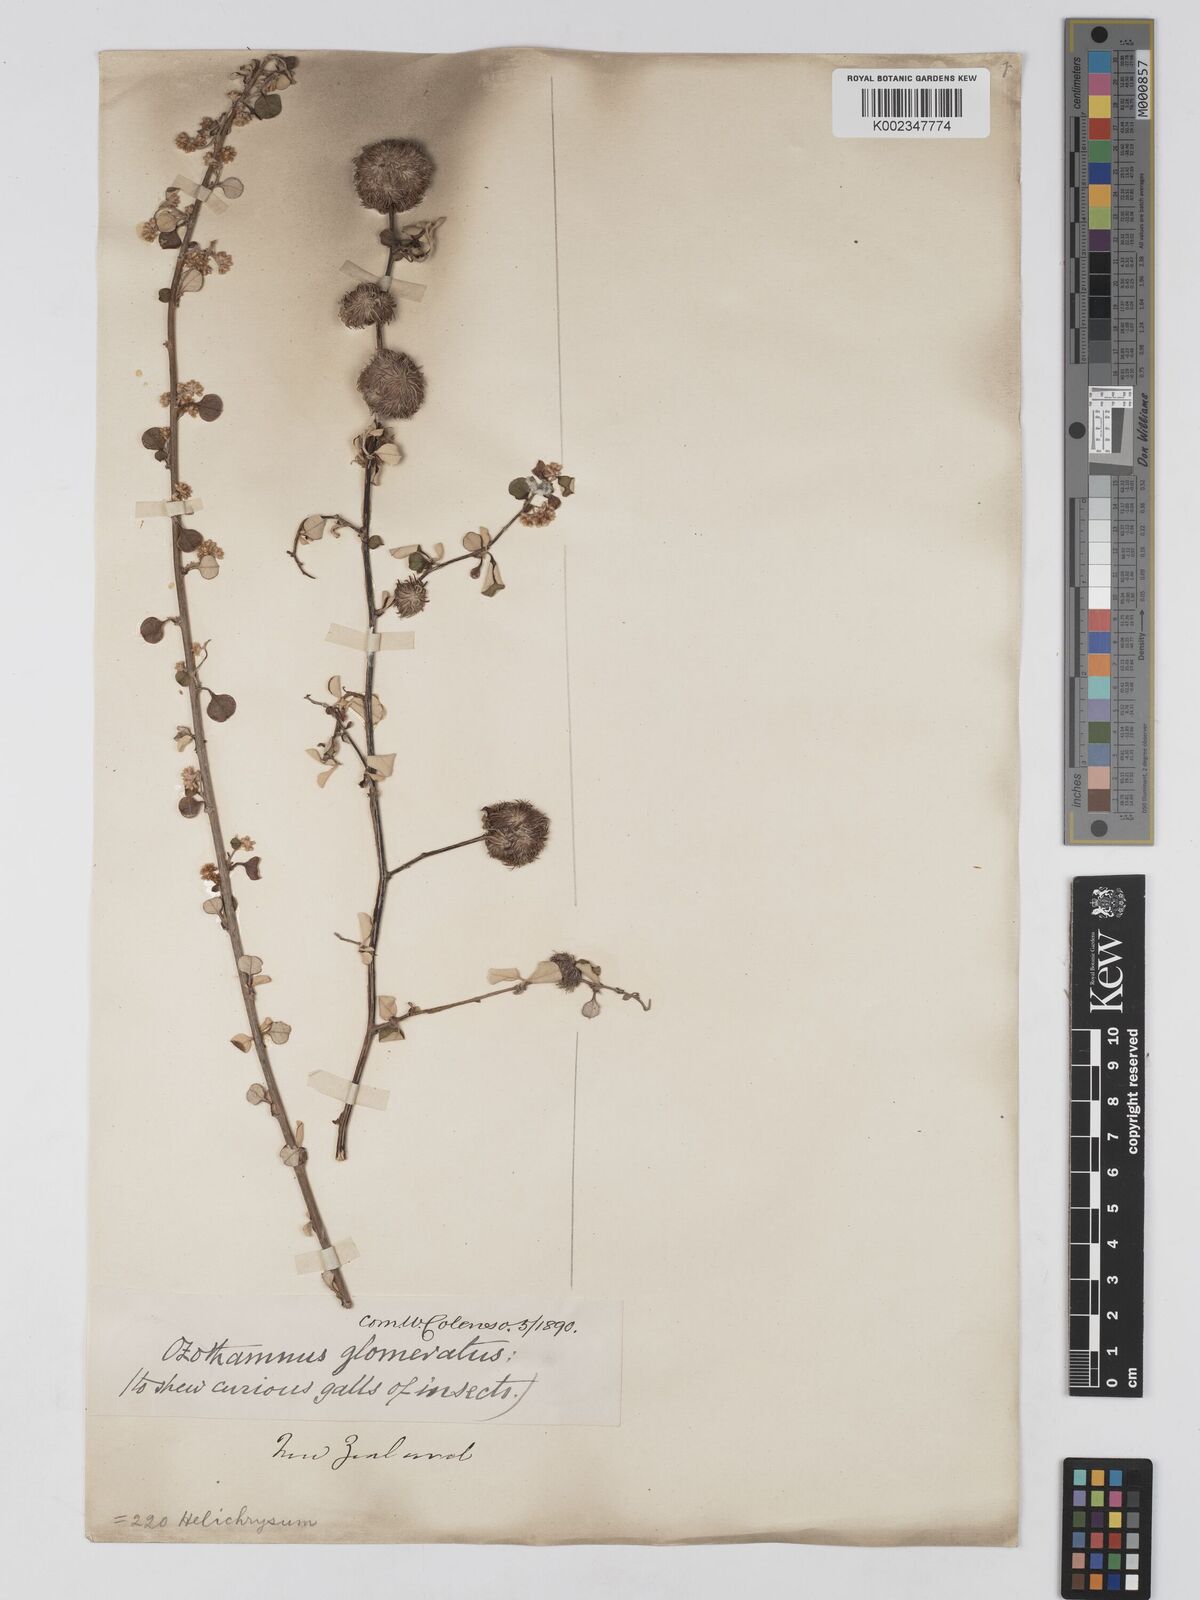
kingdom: Plantae
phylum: Tracheophyta
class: Magnoliopsida
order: Asterales
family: Asteraceae
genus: Ozothamnus
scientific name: Ozothamnus glomeratus
